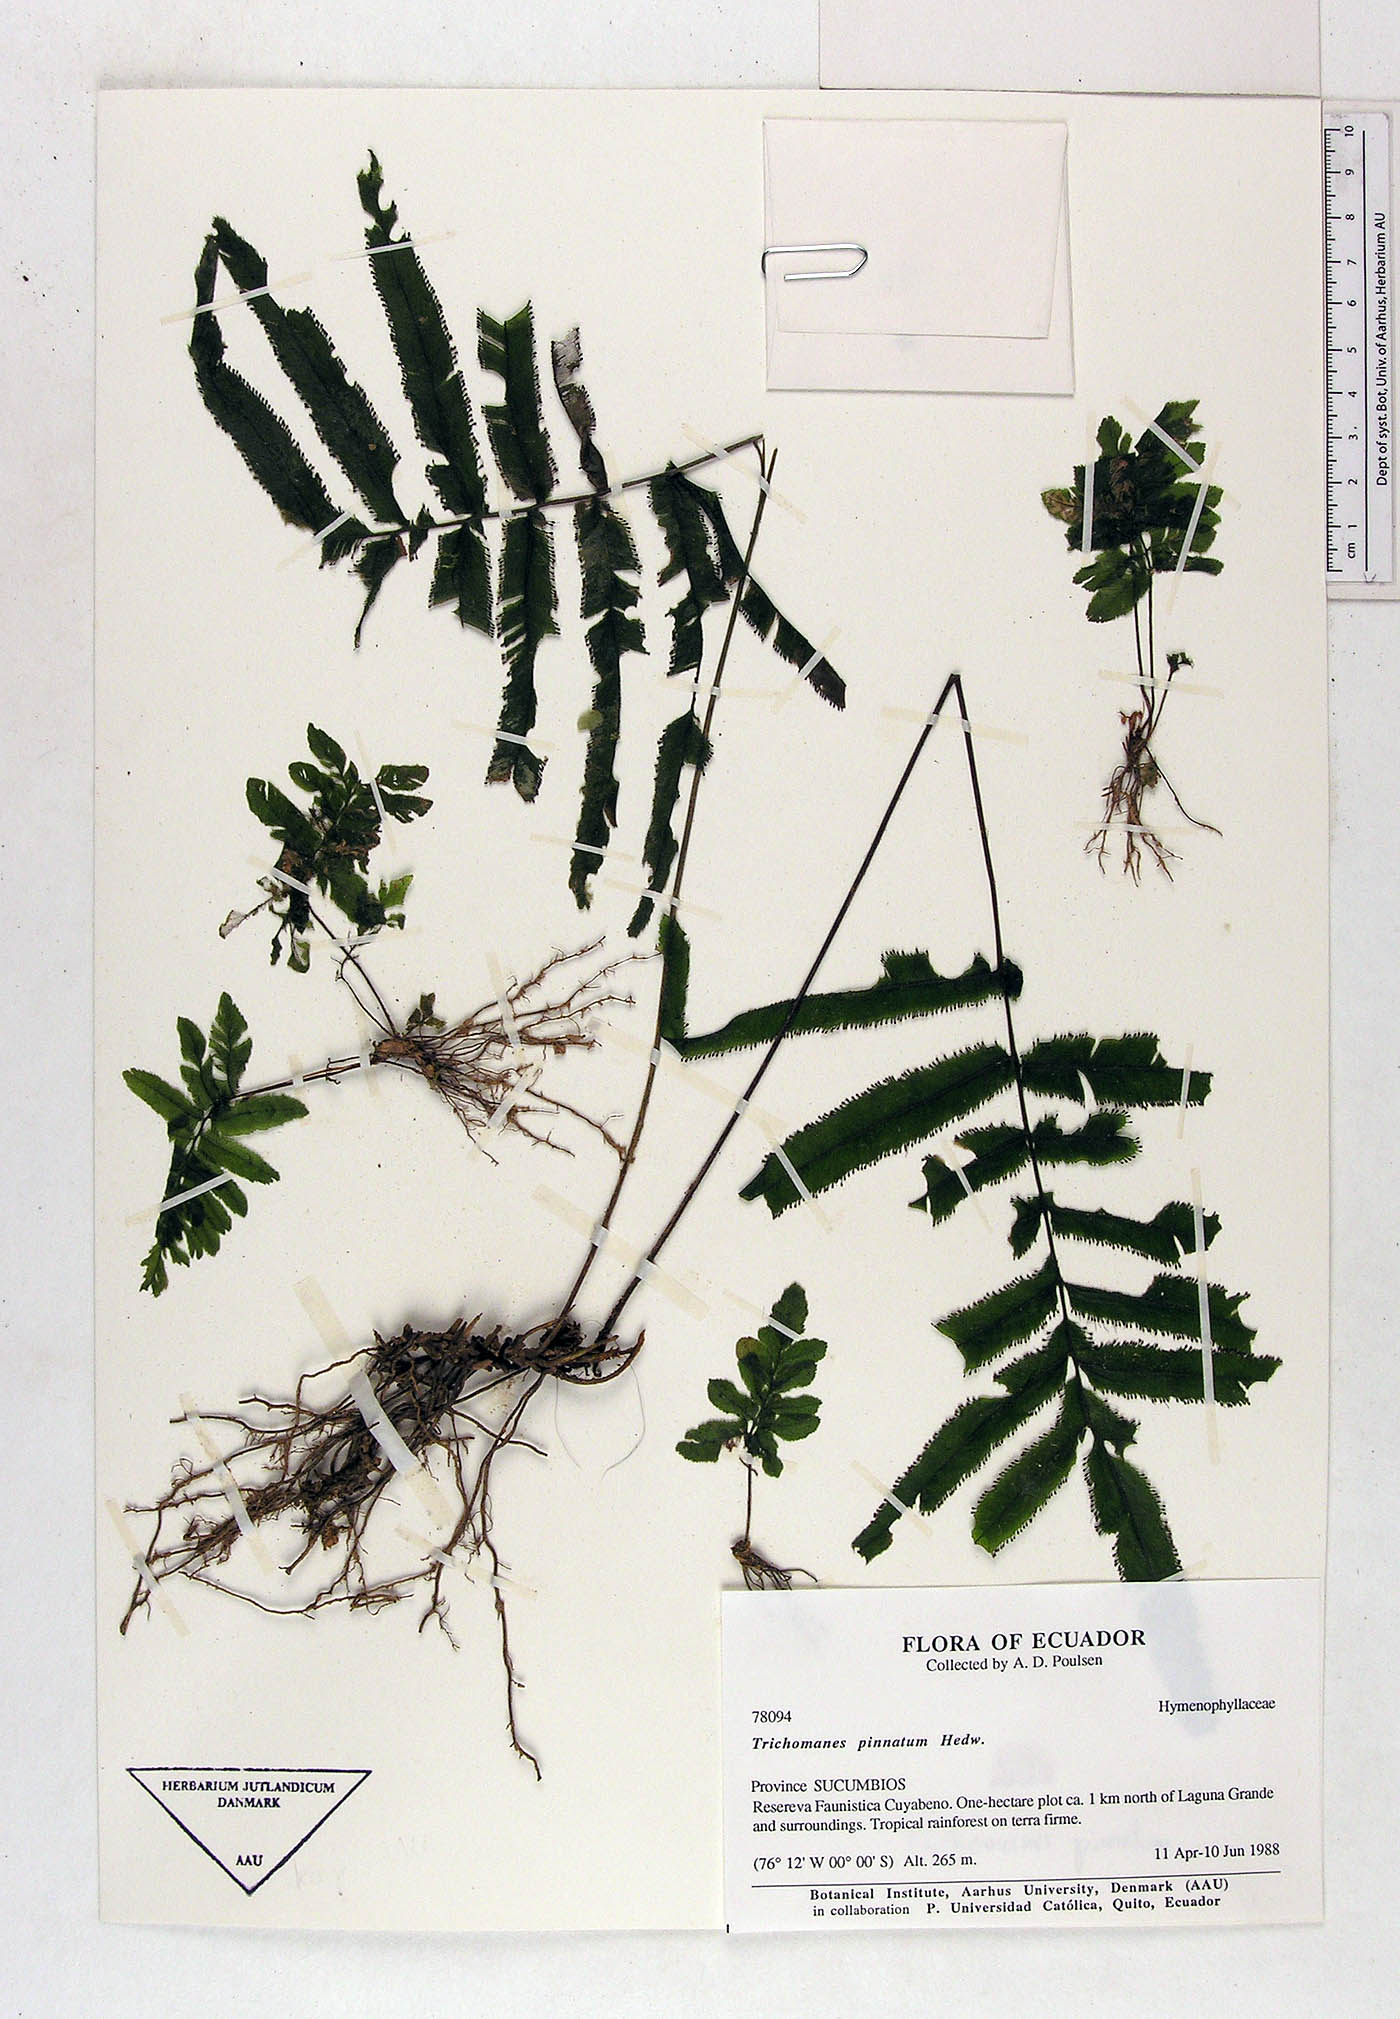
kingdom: Plantae
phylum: Tracheophyta
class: Polypodiopsida
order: Hymenophyllales
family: Hymenophyllaceae
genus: Trichomanes
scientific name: Trichomanes pinnatum
